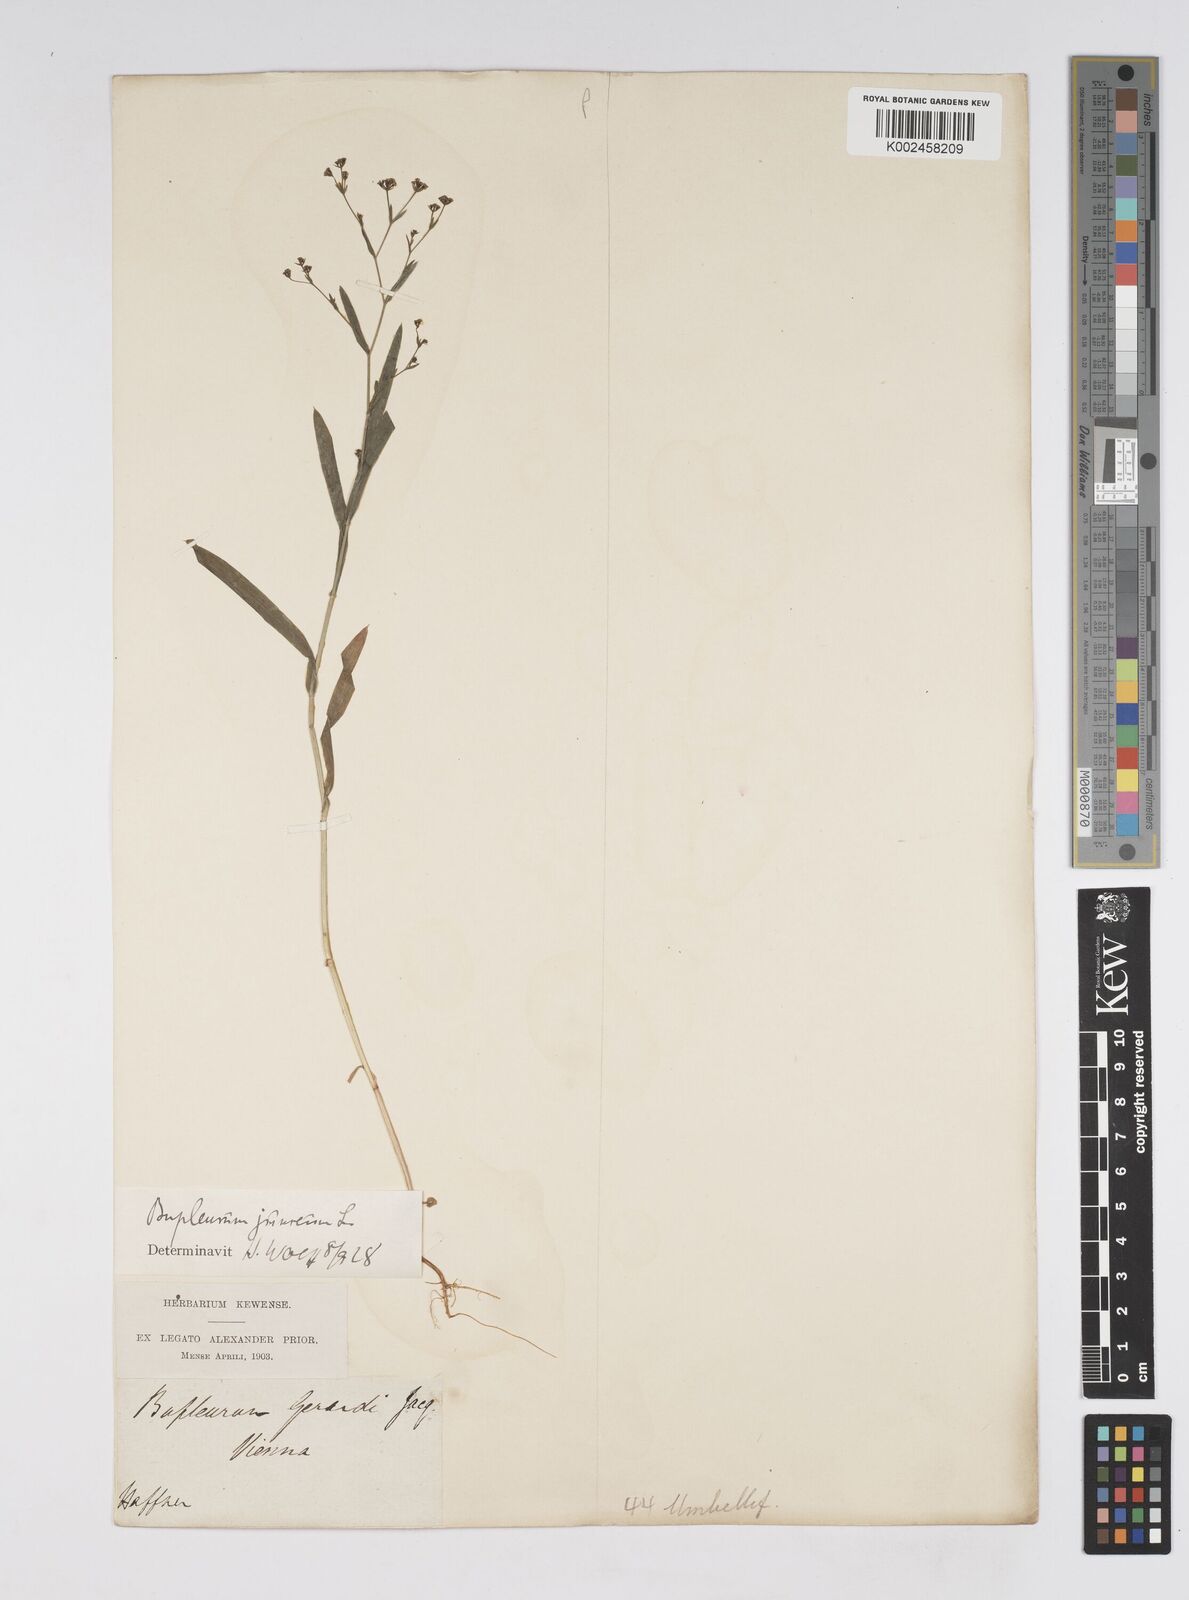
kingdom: Plantae
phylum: Tracheophyta
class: Magnoliopsida
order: Apiales
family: Apiaceae
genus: Bupleurum
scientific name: Bupleurum praealtum
